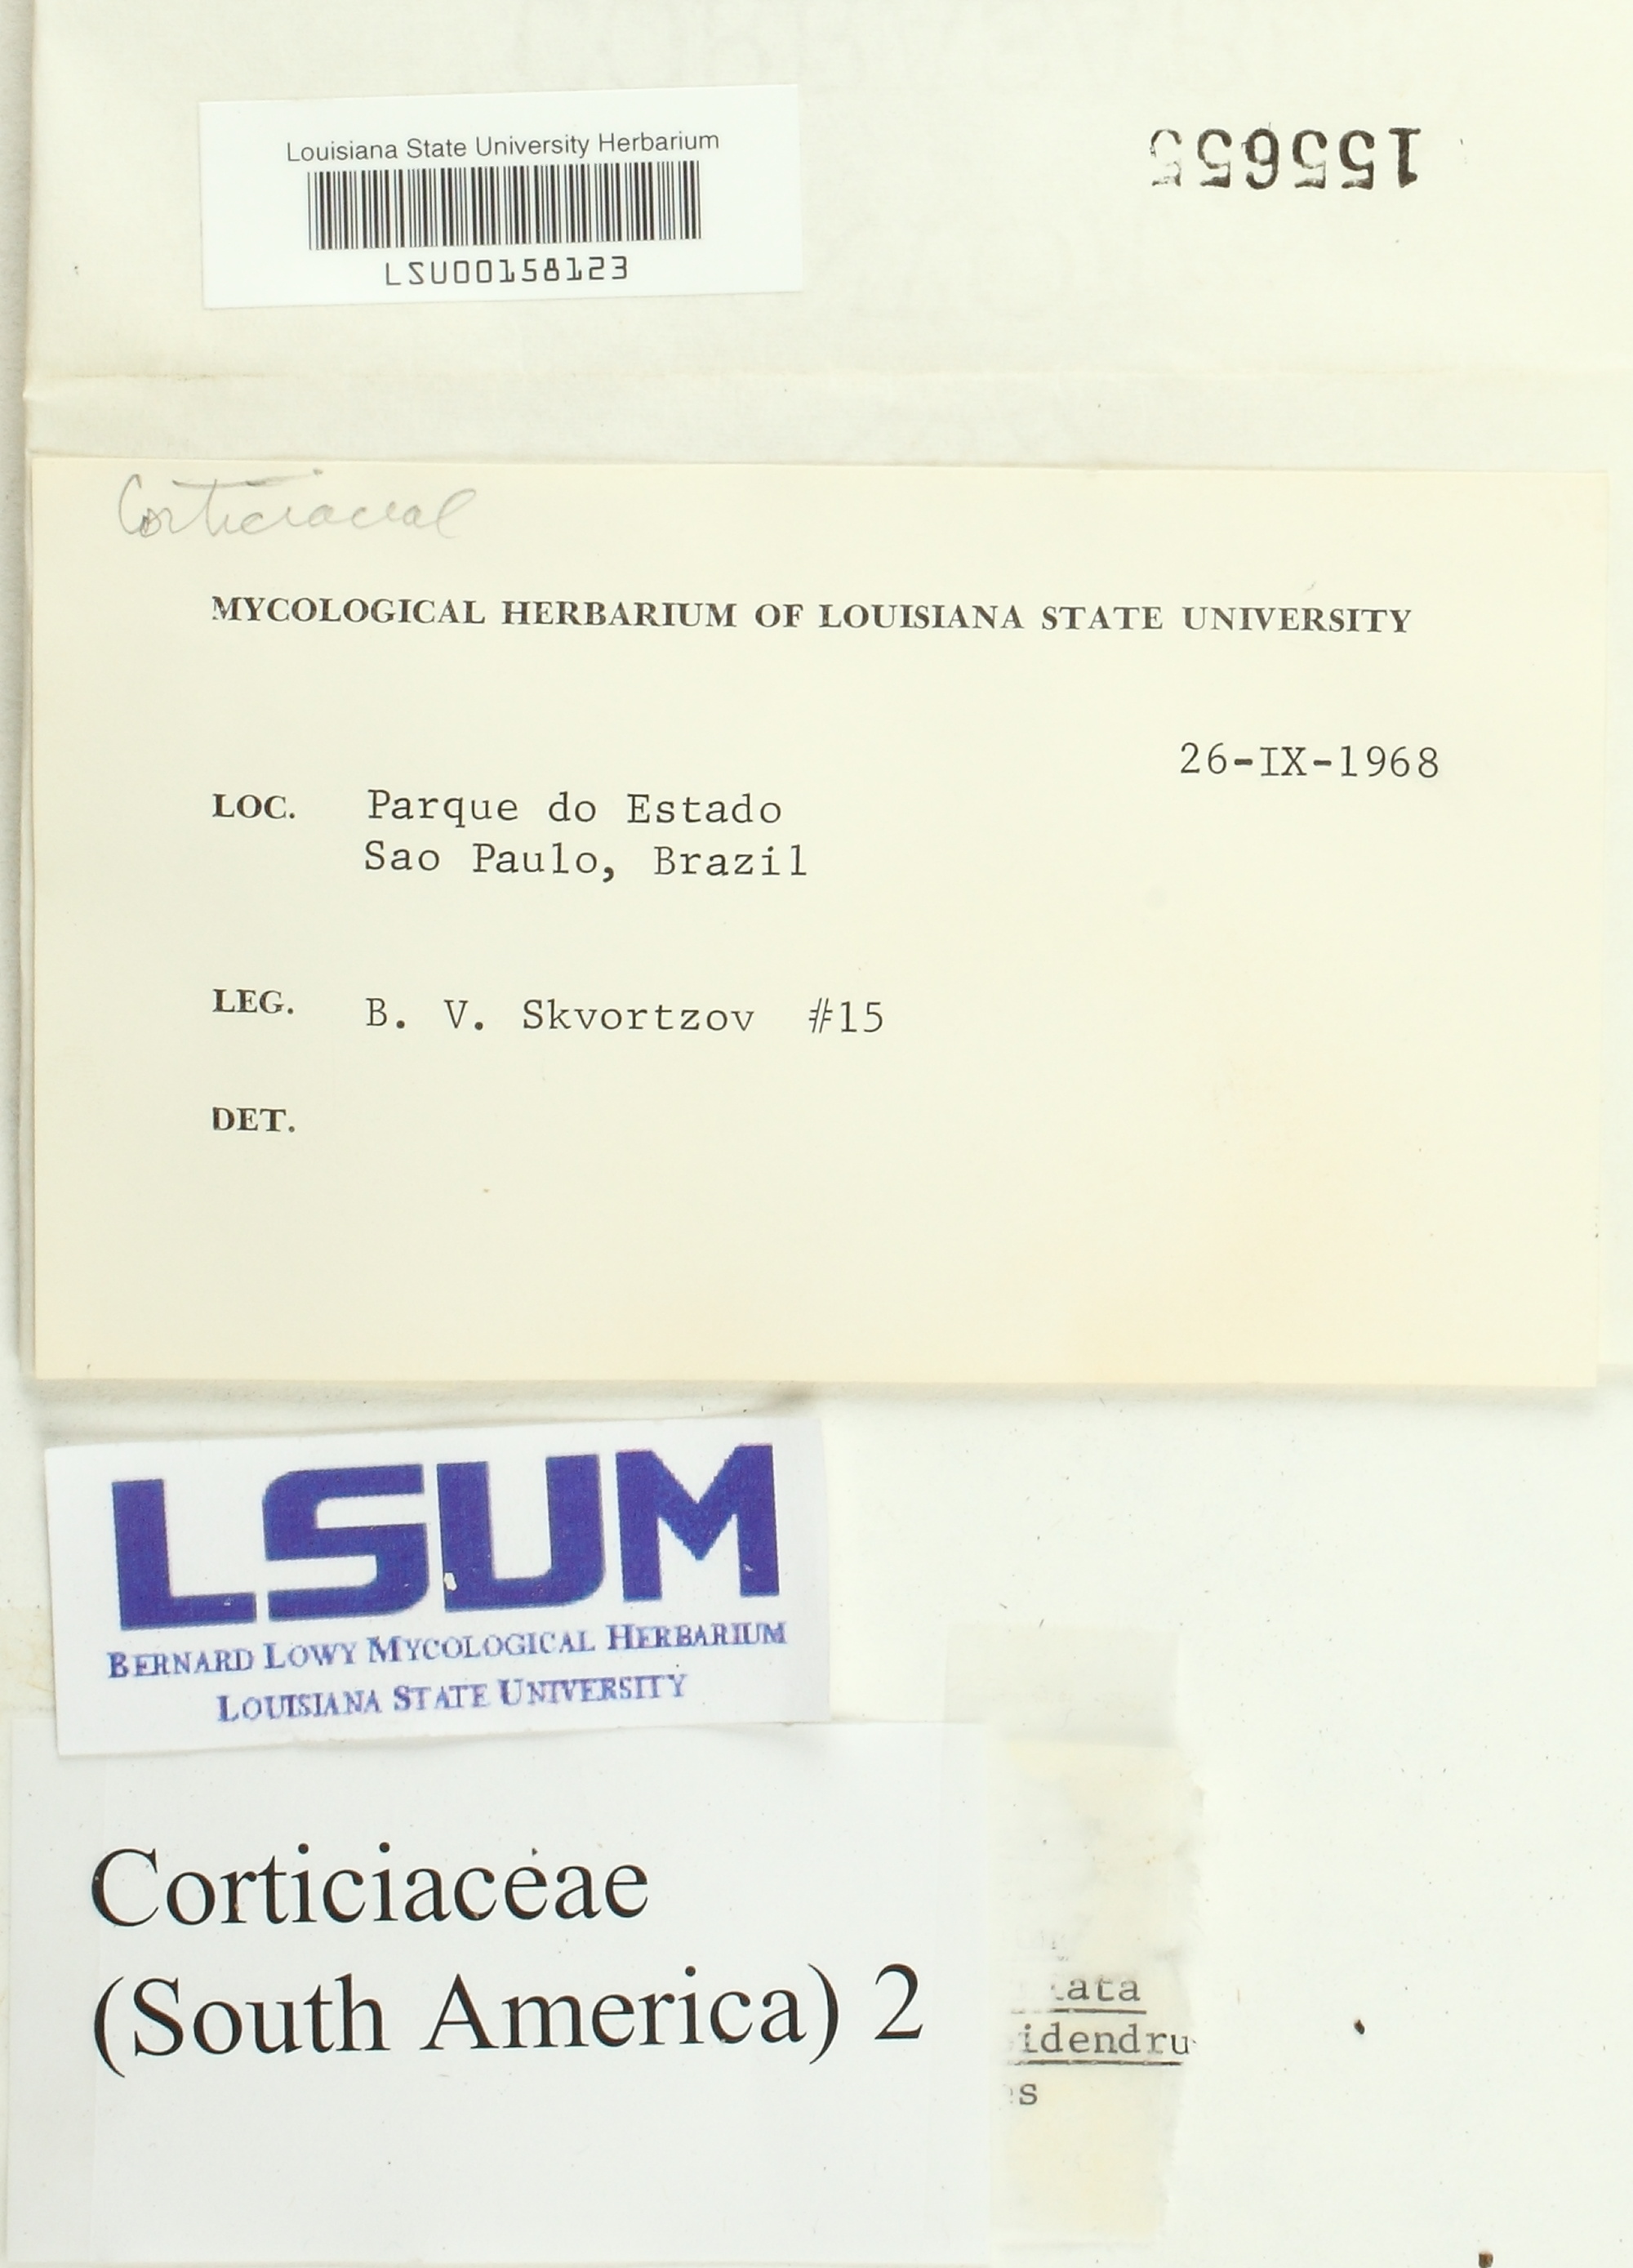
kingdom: Fungi
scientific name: Fungi
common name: Fungi
